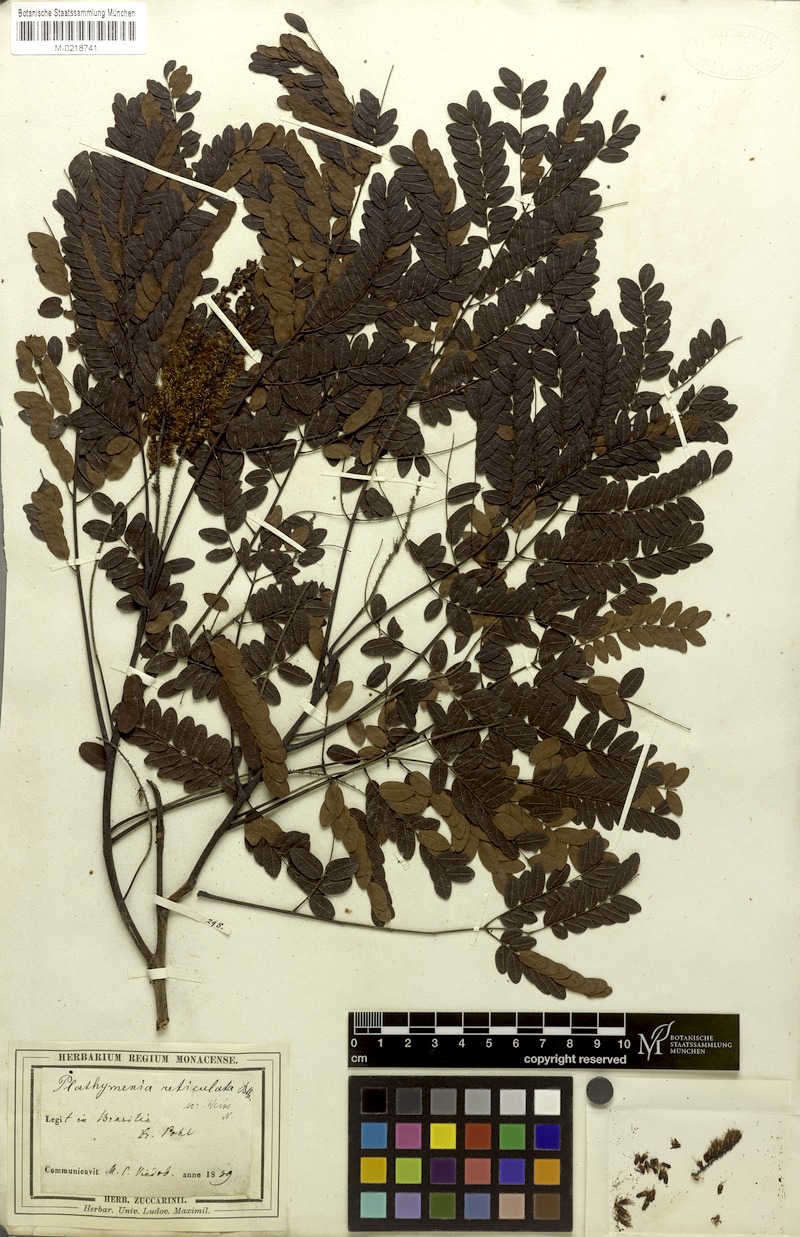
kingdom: Plantae
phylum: Tracheophyta
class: Magnoliopsida
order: Fabales
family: Fabaceae
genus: Plathymenia
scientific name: Plathymenia reticulata
